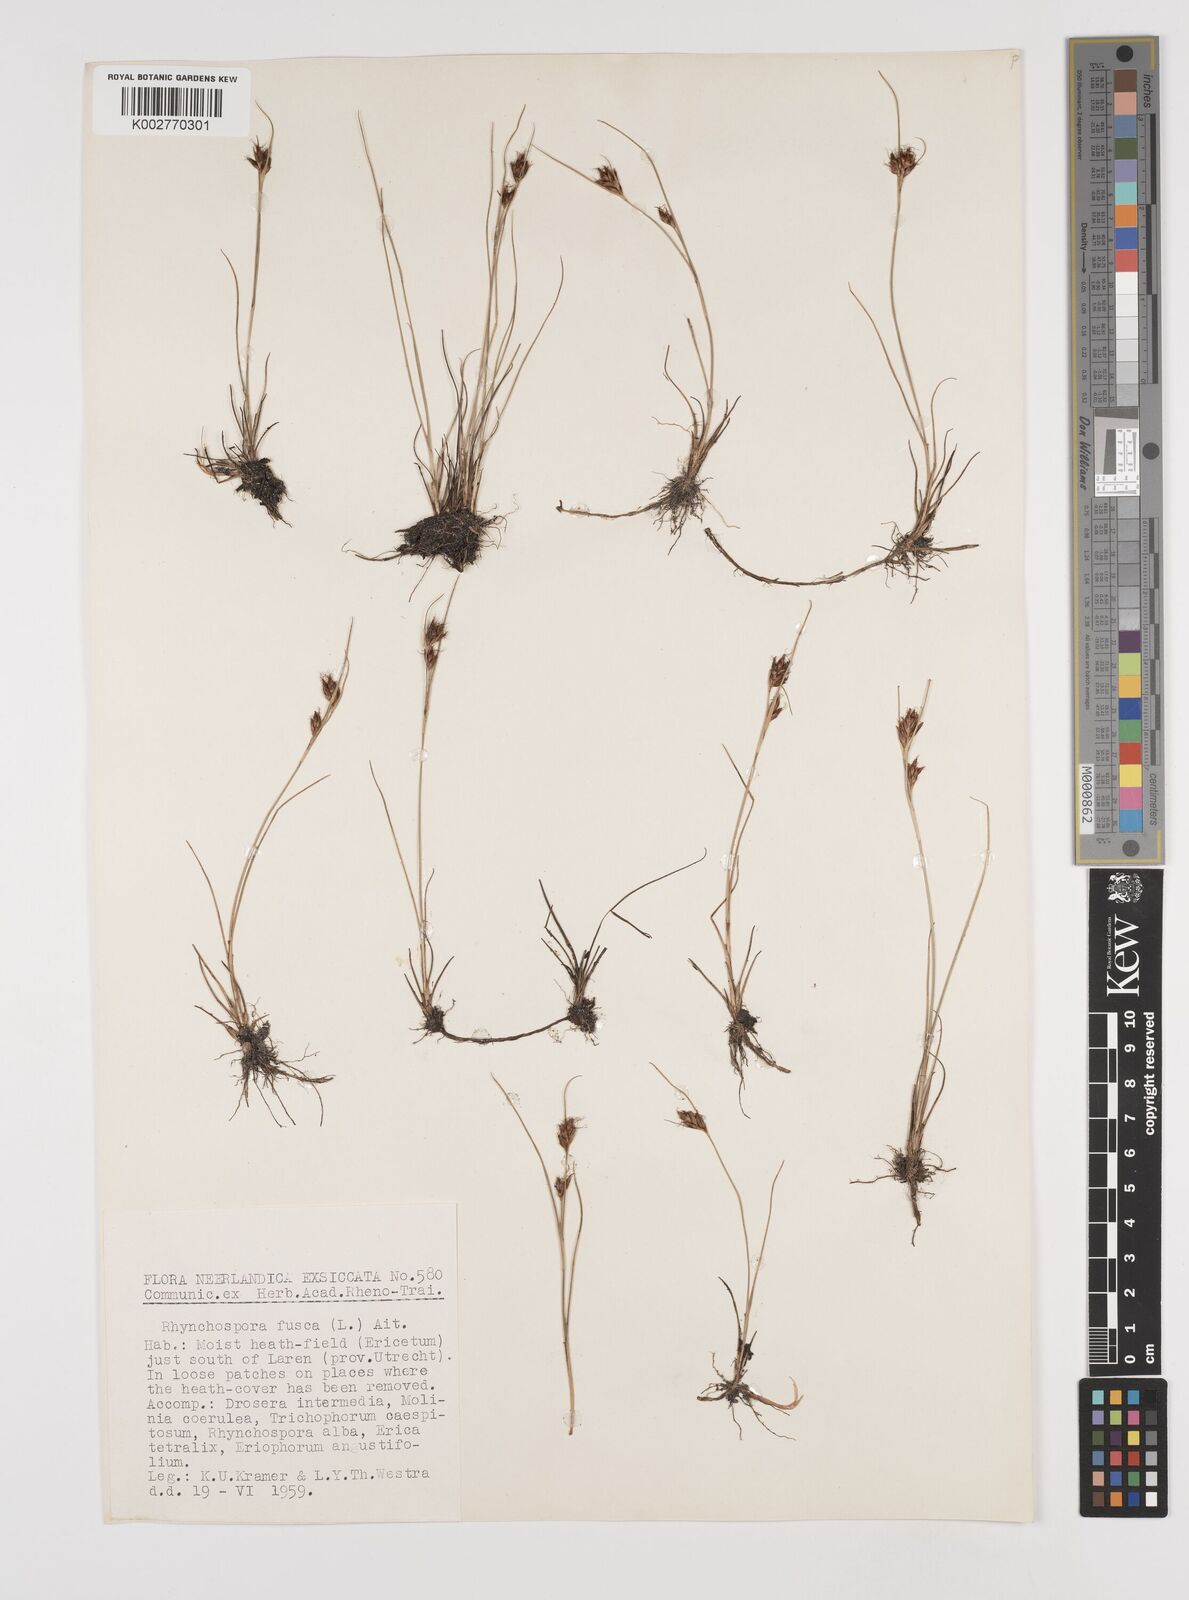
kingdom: Plantae
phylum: Tracheophyta
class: Liliopsida
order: Poales
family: Cyperaceae
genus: Rhynchospora
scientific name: Rhynchospora fusca
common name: Brown beak-sedge
